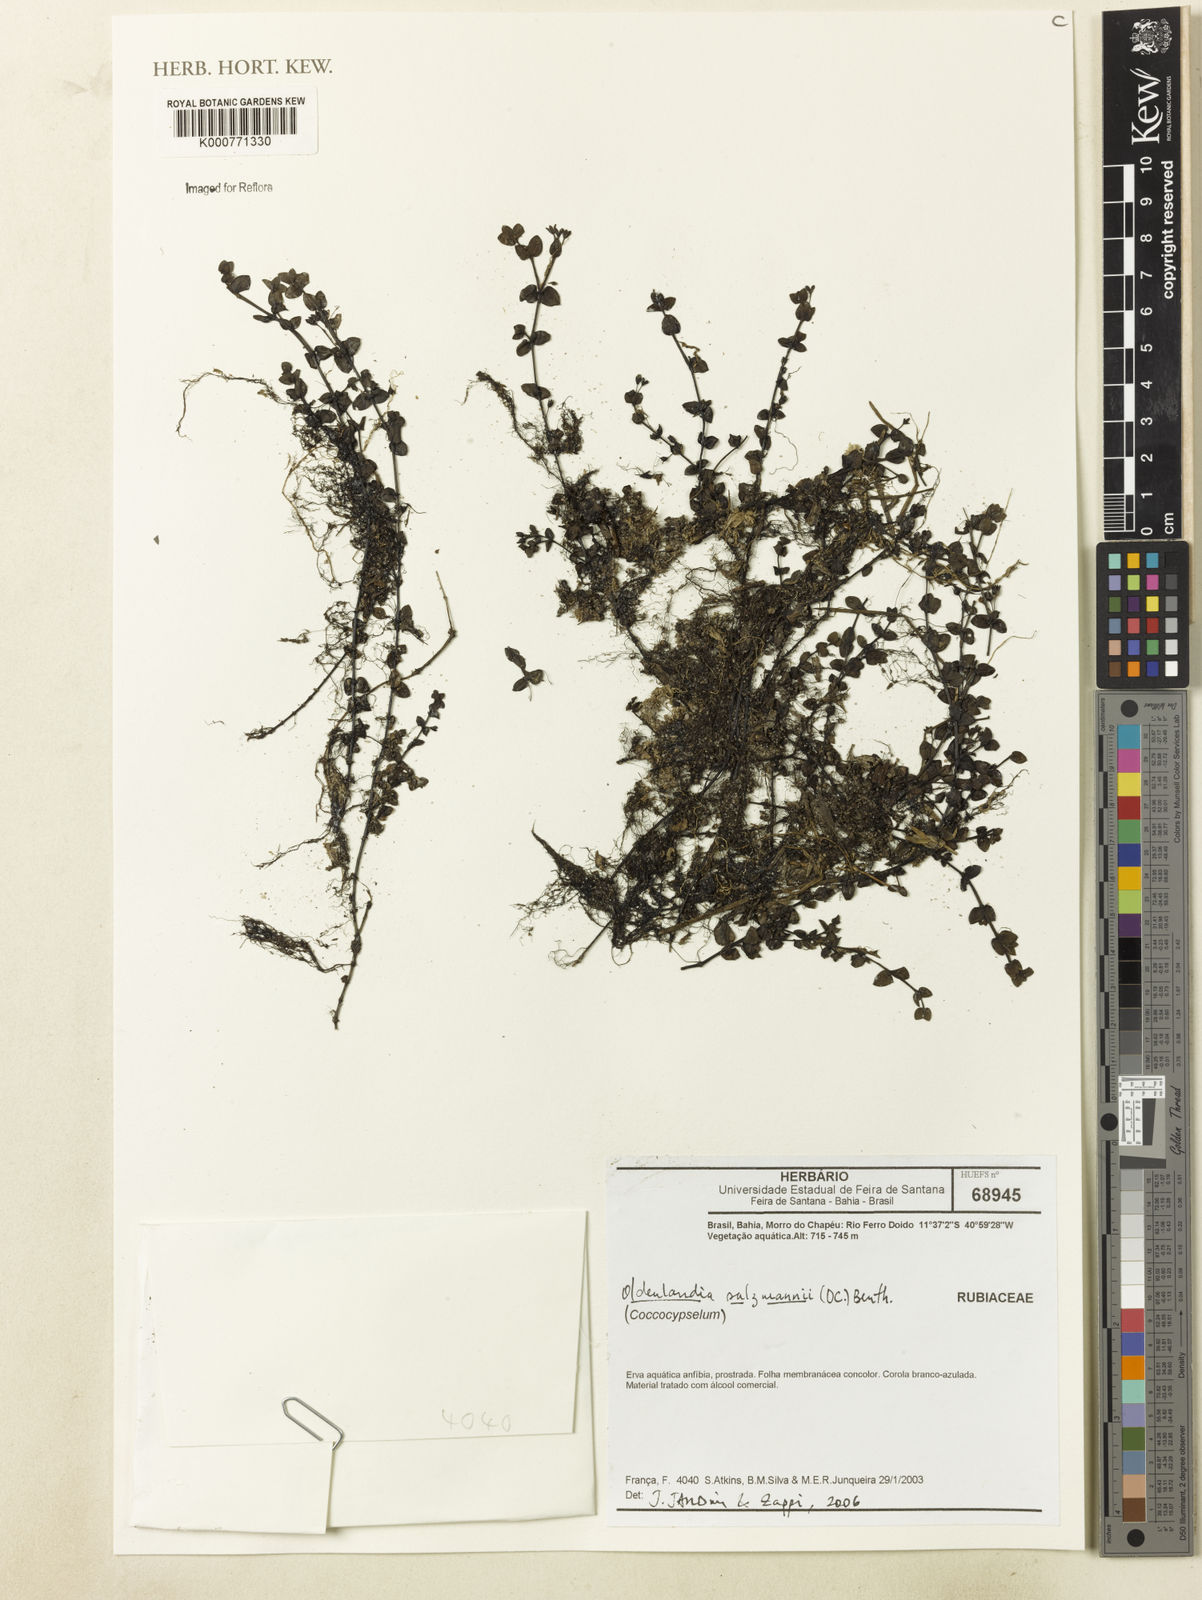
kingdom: Plantae
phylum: Tracheophyta
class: Magnoliopsida
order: Gentianales
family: Rubiaceae
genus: Oldenlandia
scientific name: Oldenlandia
